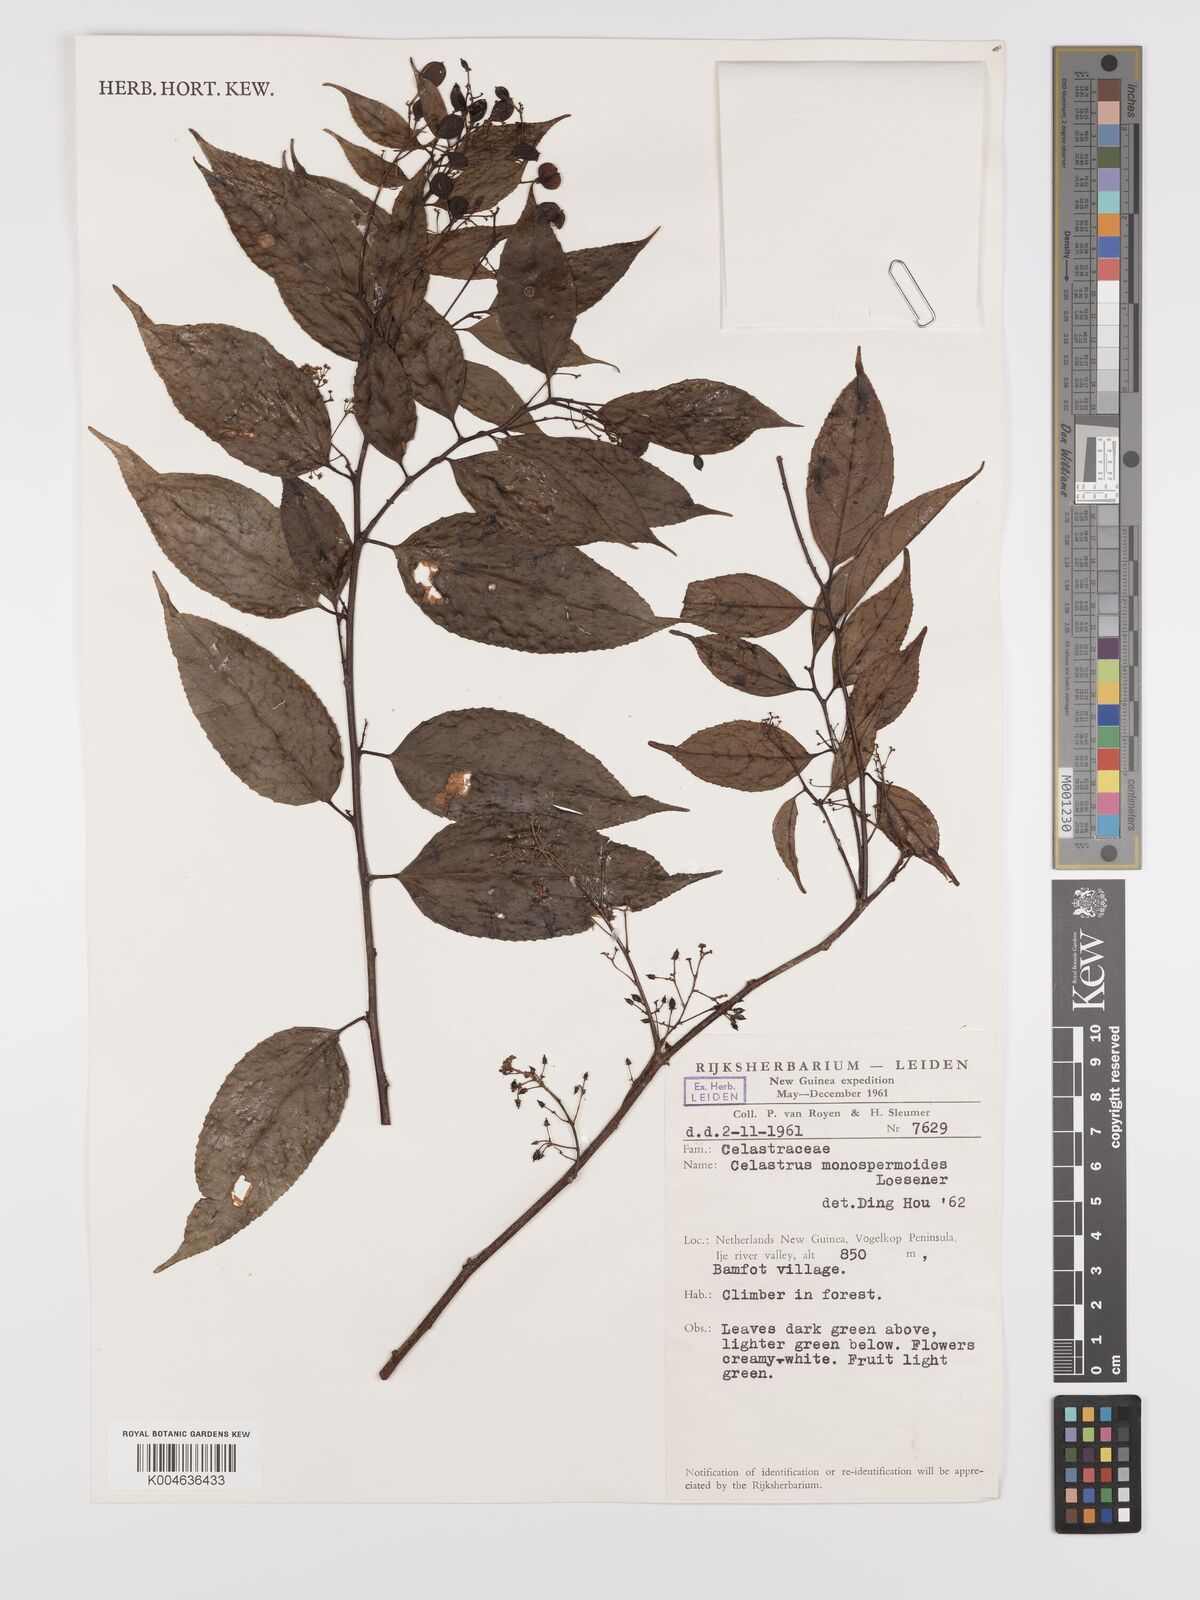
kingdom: Plantae
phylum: Tracheophyta
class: Magnoliopsida
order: Celastrales
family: Celastraceae
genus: Celastrus
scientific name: Celastrus monospermoides
